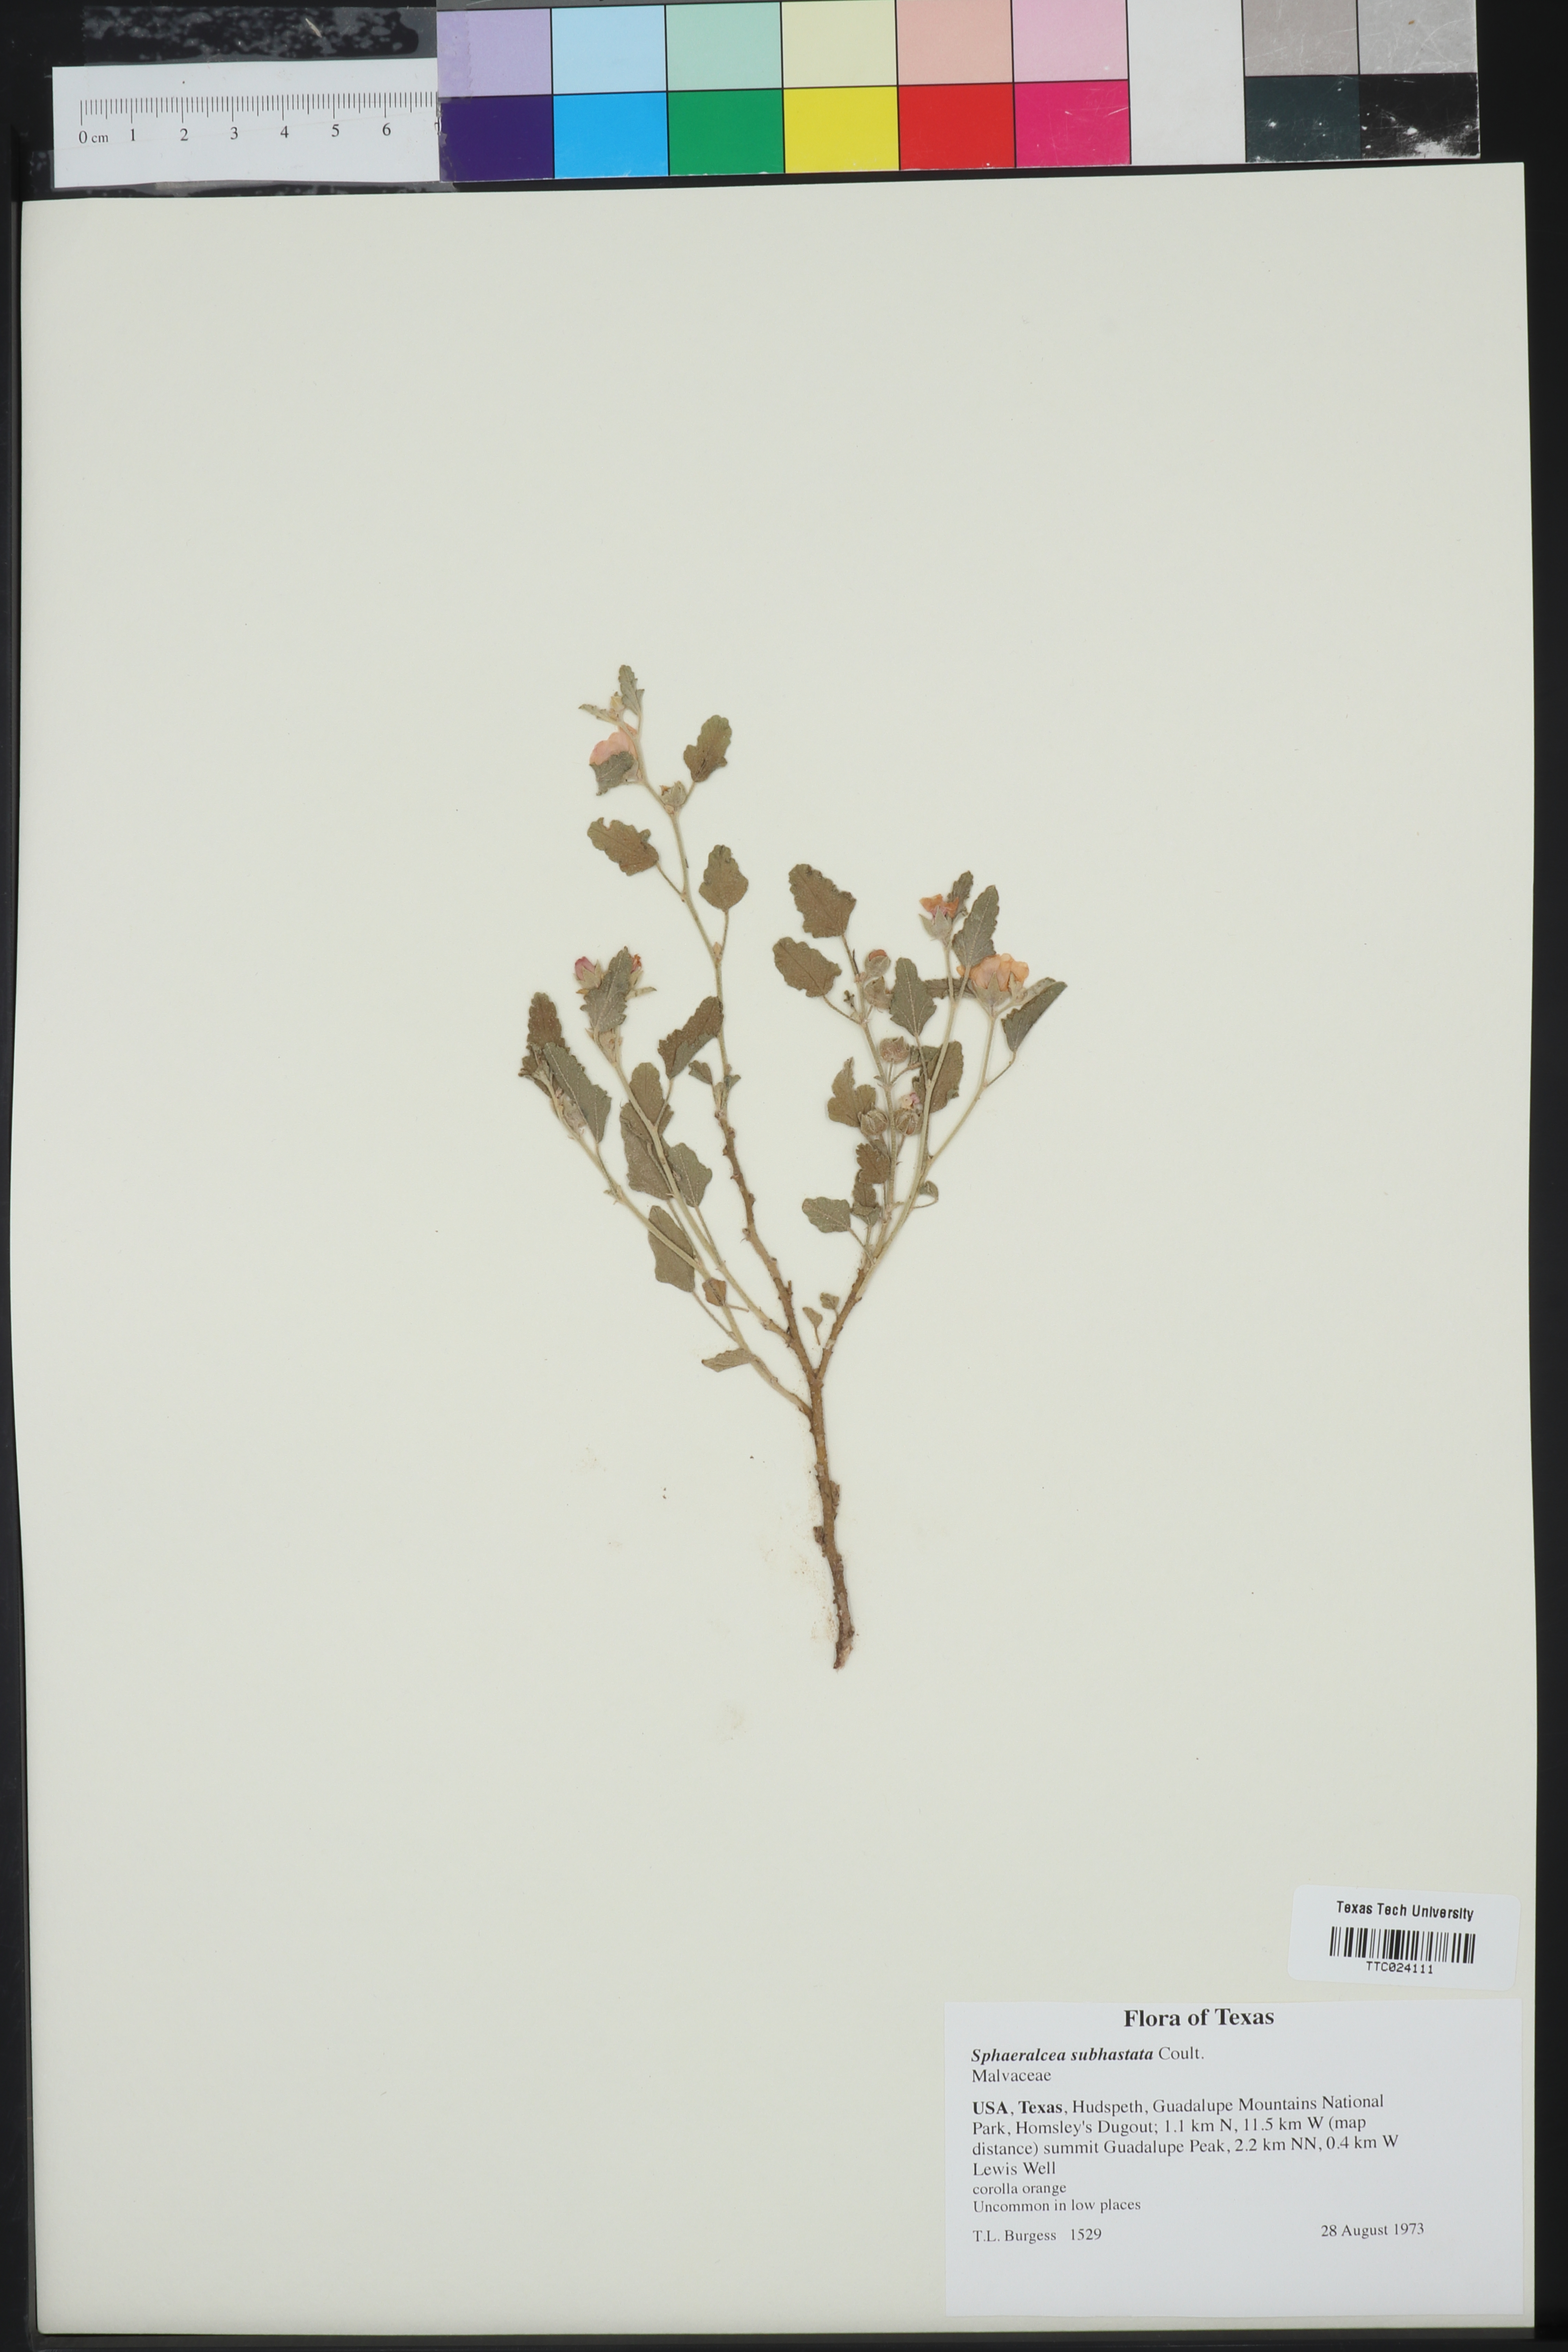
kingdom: Plantae
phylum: Tracheophyta
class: Magnoliopsida
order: Malvales
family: Malvaceae
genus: Sphaeralcea
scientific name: Sphaeralcea hastulata
